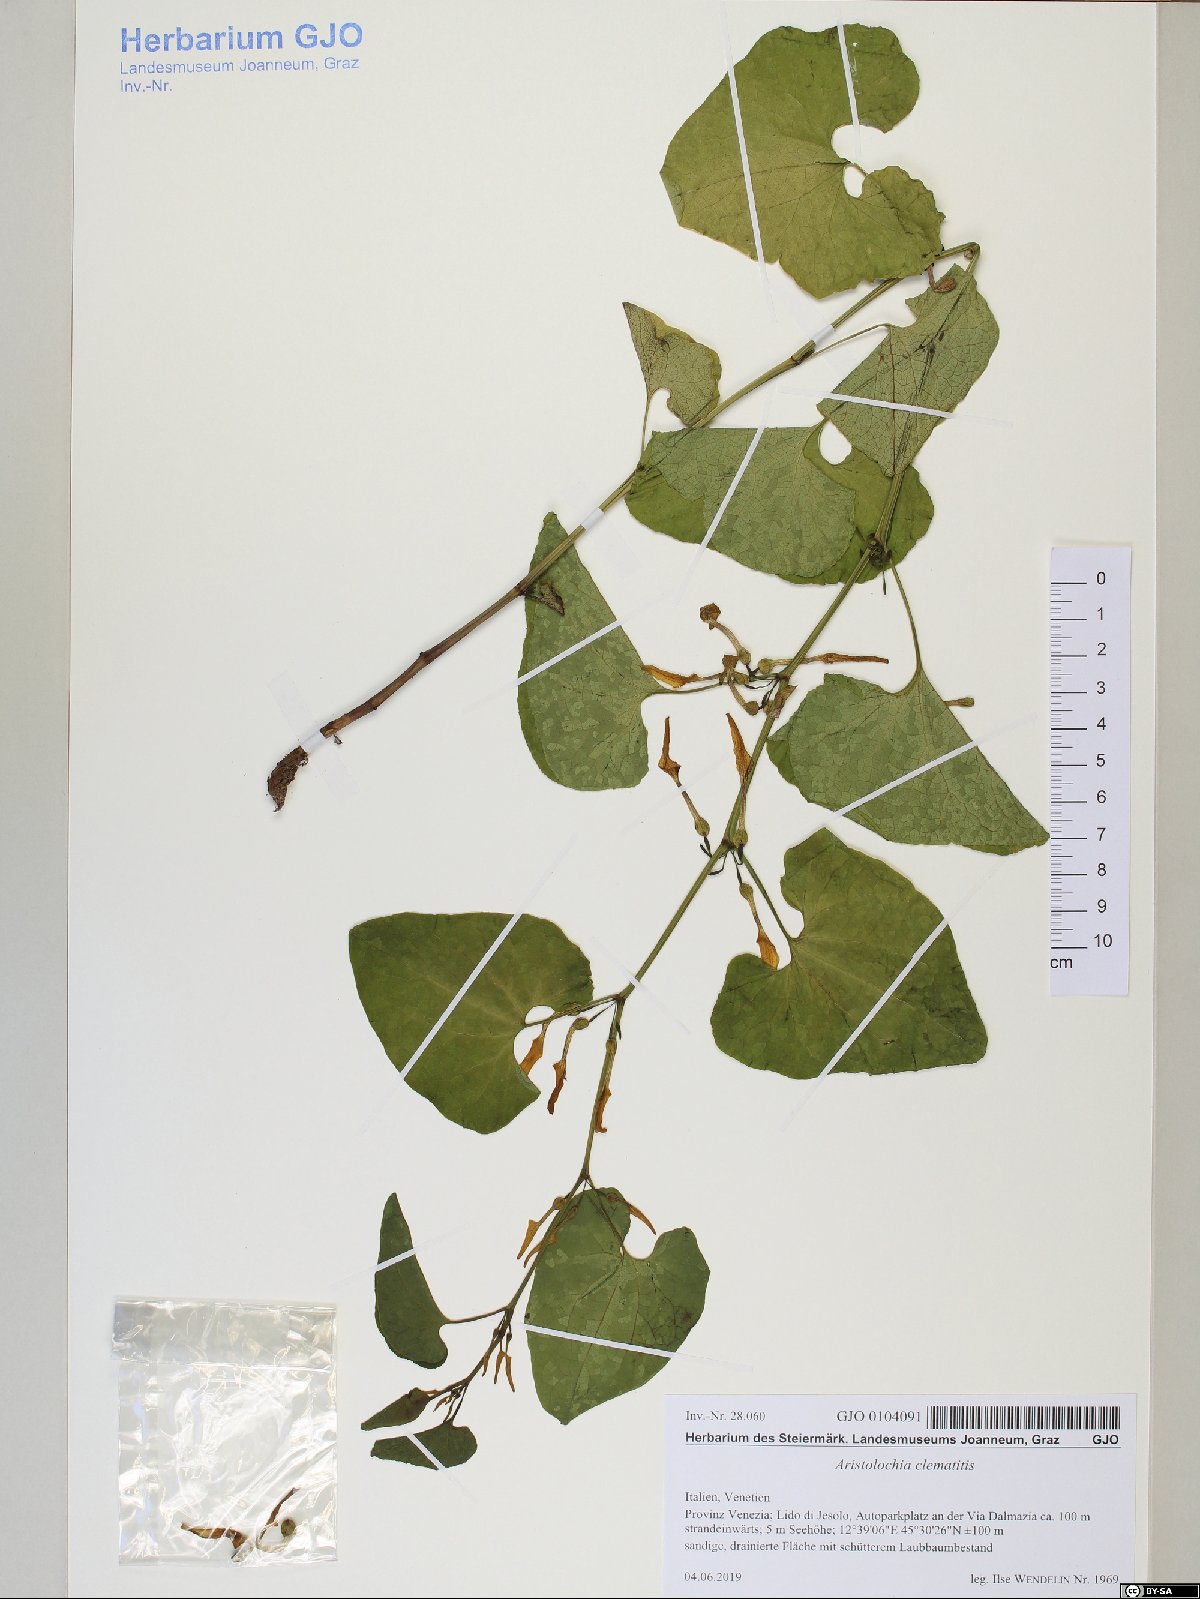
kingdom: Plantae
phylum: Tracheophyta
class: Magnoliopsida
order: Piperales
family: Aristolochiaceae
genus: Aristolochia
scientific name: Aristolochia clematitis
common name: Birthwort
